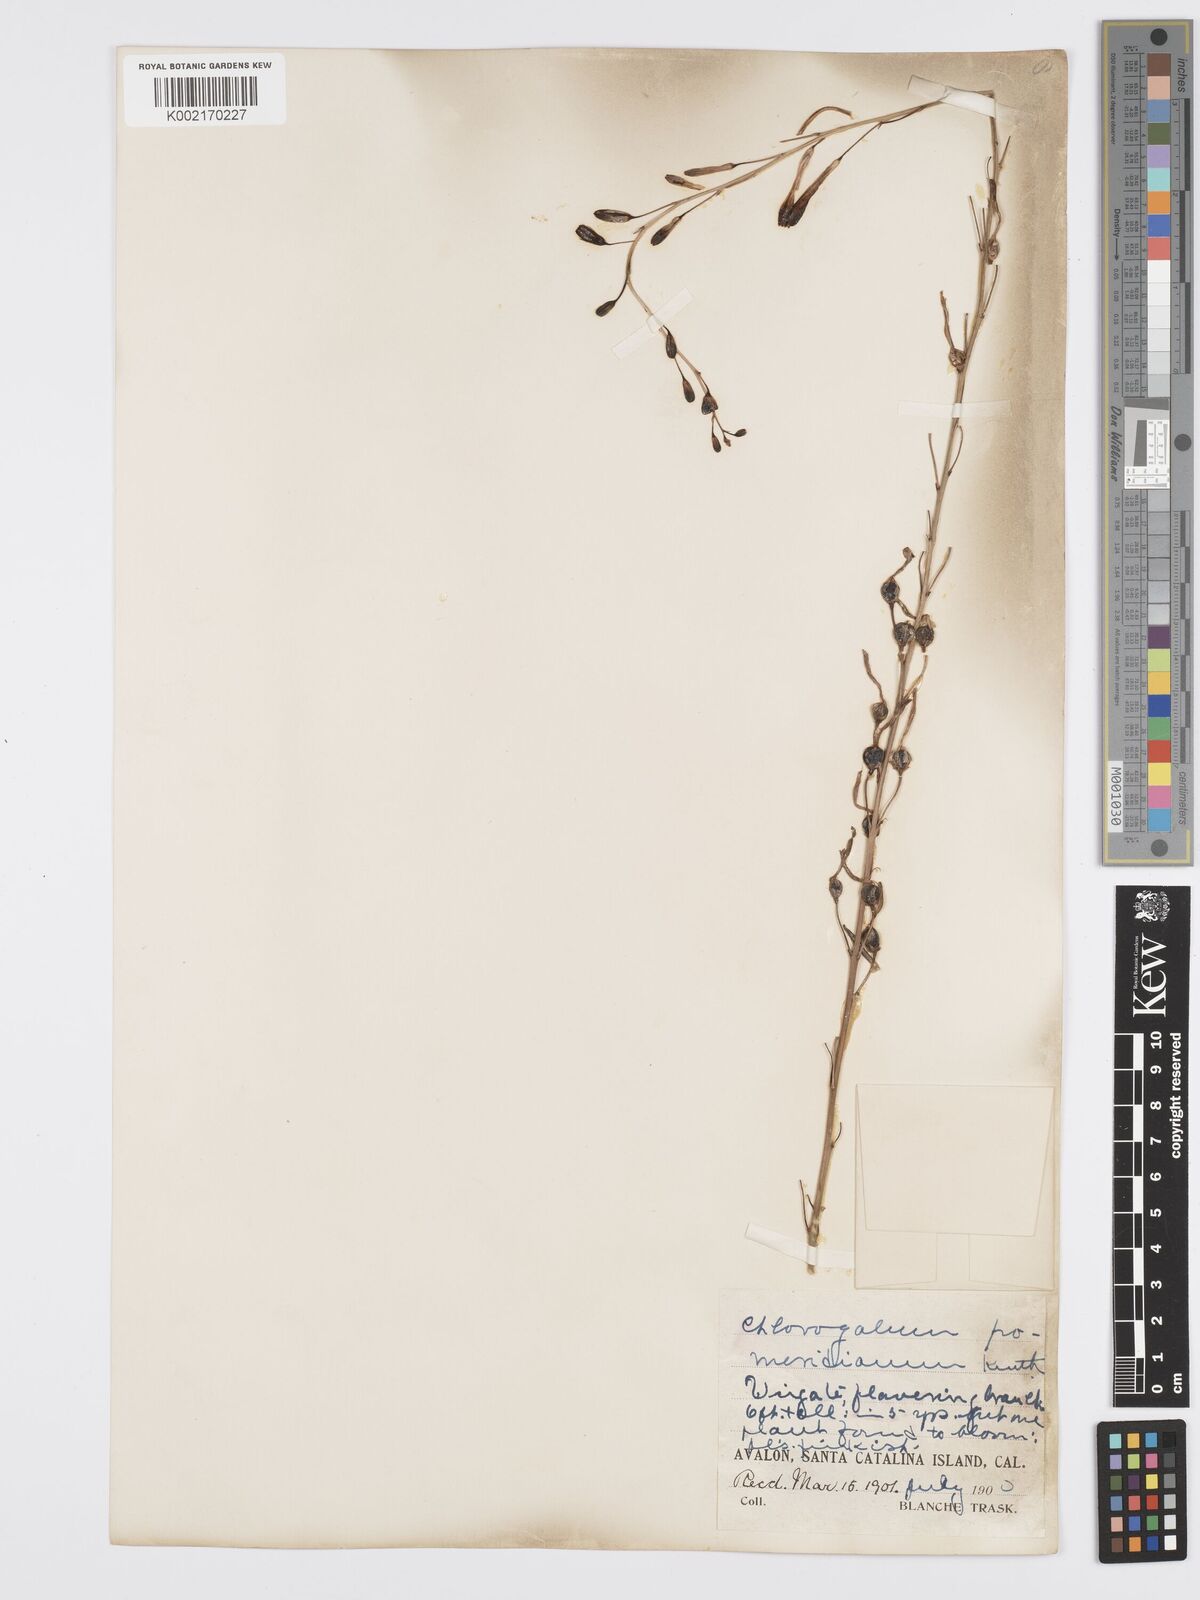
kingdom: Plantae
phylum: Tracheophyta
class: Liliopsida
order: Asparagales
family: Asparagaceae
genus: Chlorogalum
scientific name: Chlorogalum pomeridianum
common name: Amole
